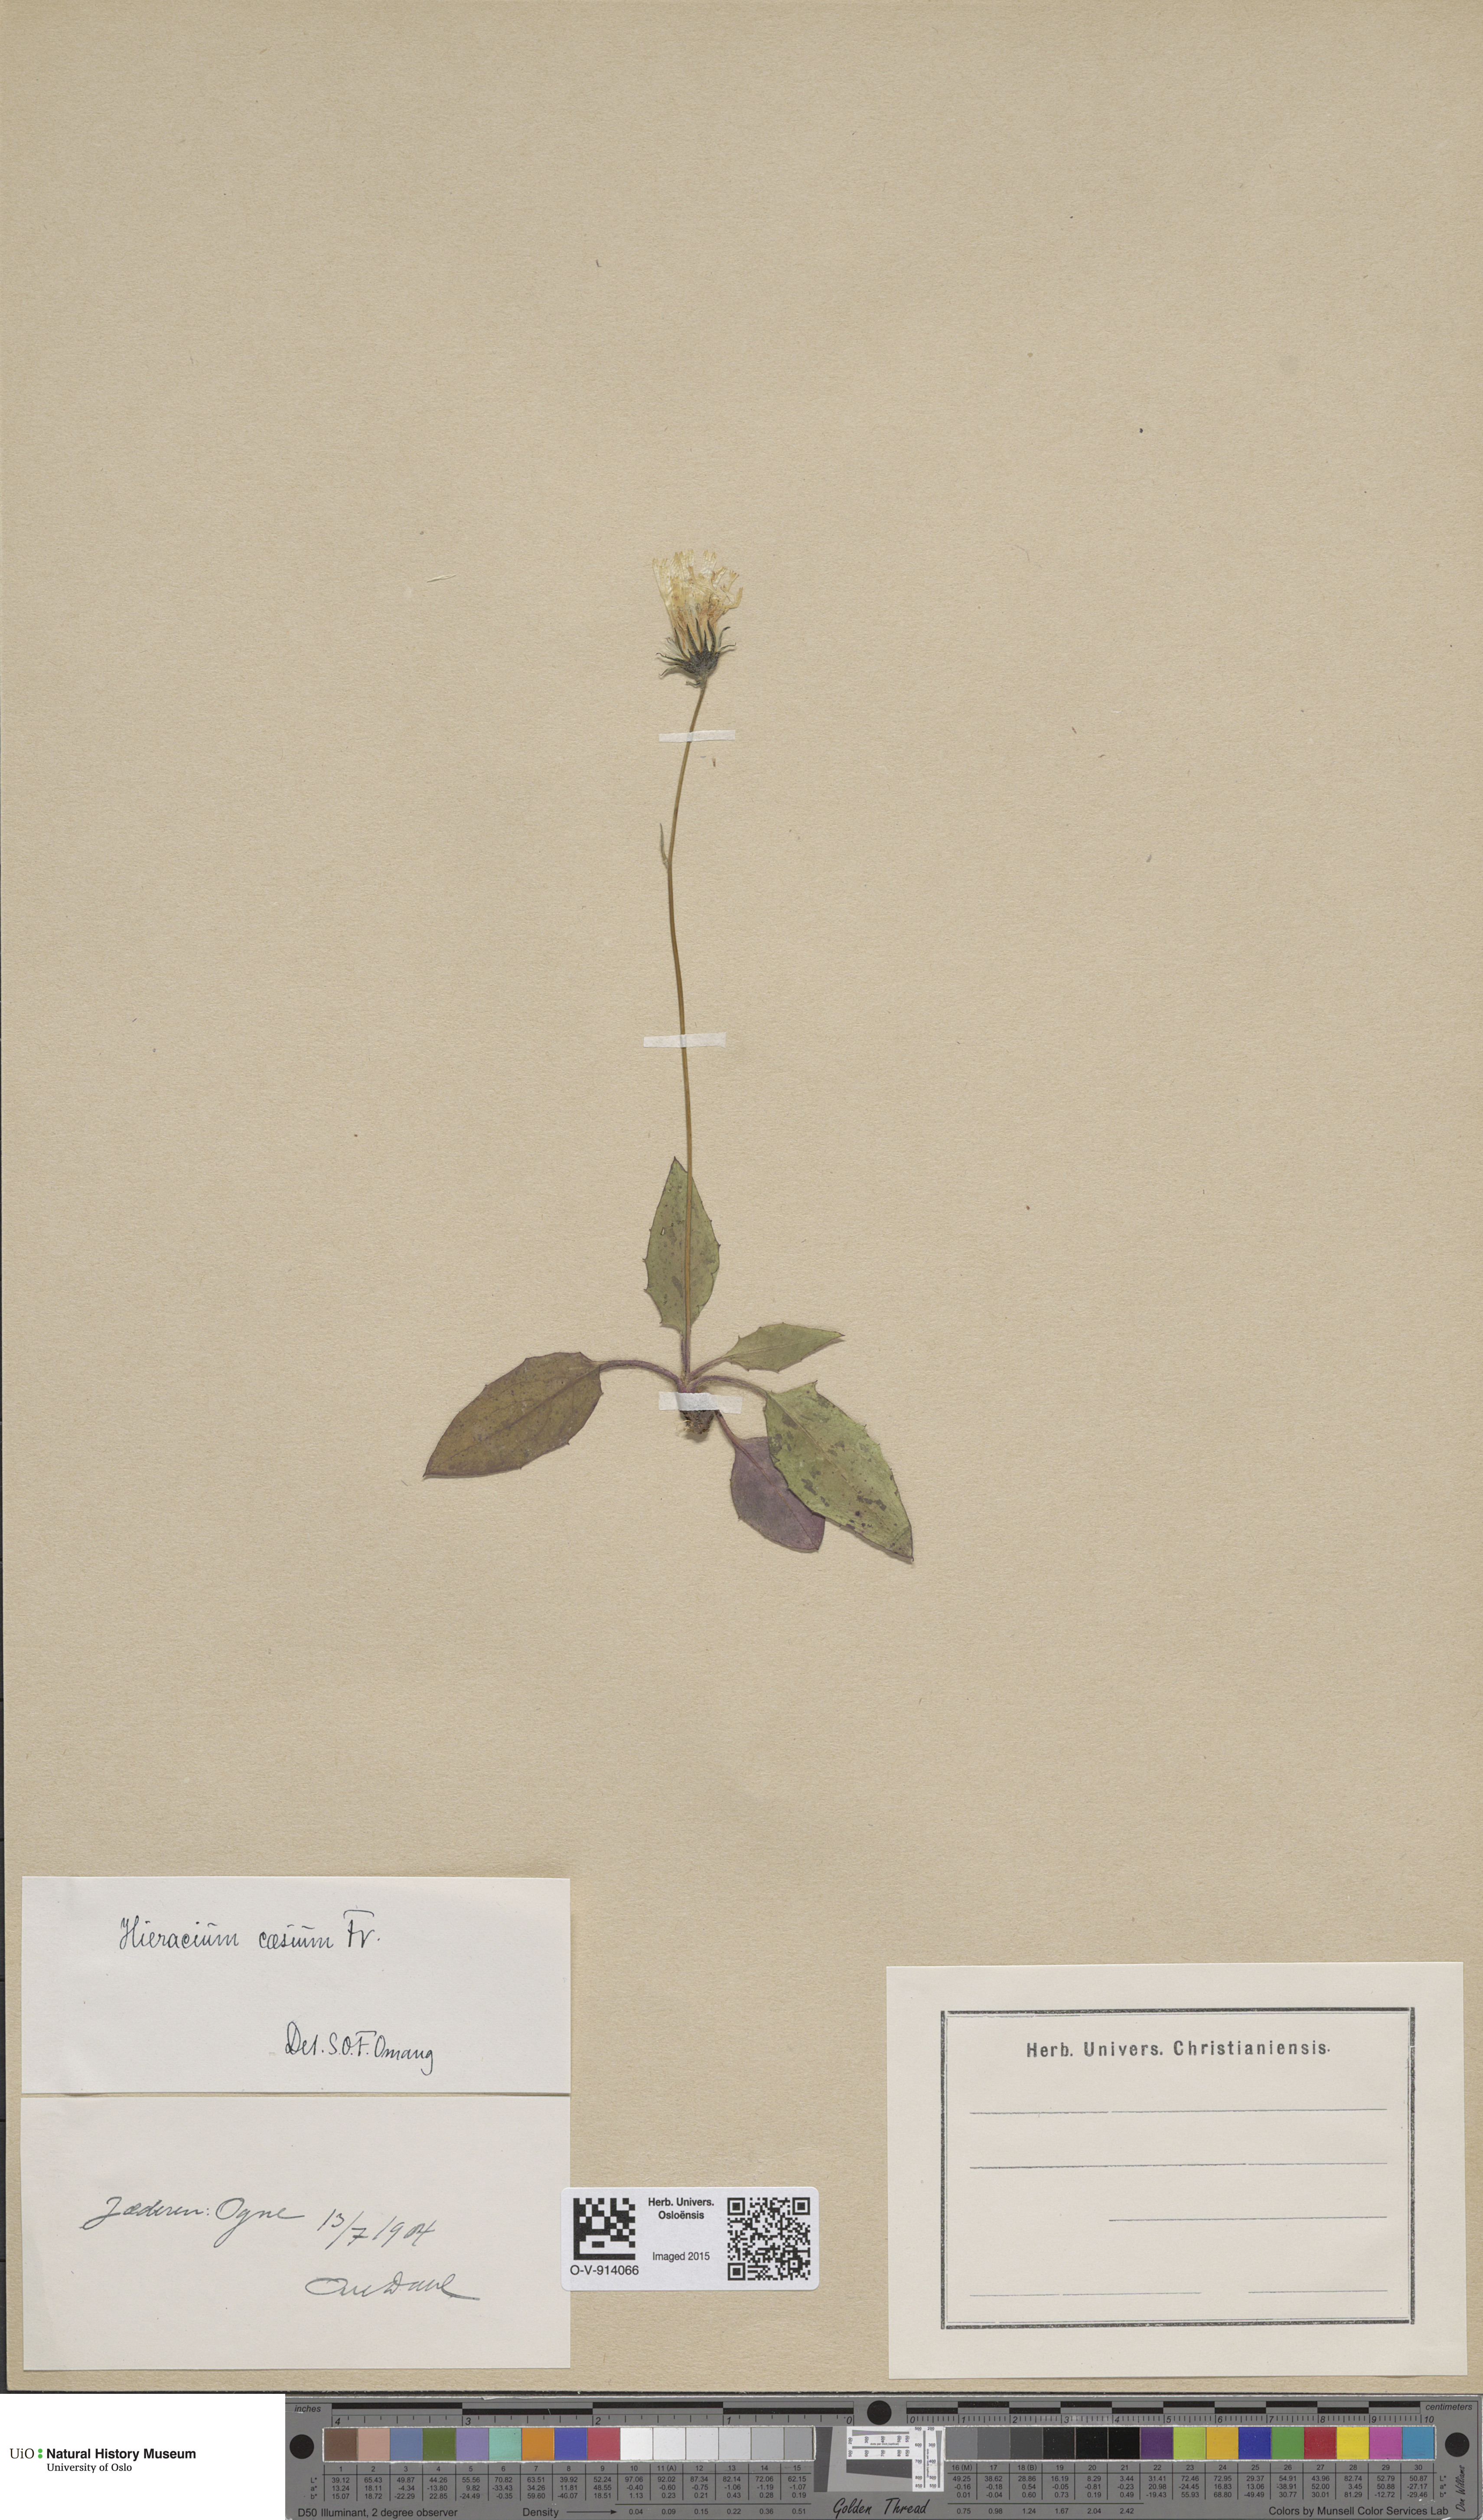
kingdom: Plantae
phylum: Tracheophyta
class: Magnoliopsida
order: Asterales
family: Asteraceae
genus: Hieracium
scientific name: Hieracium caesium
